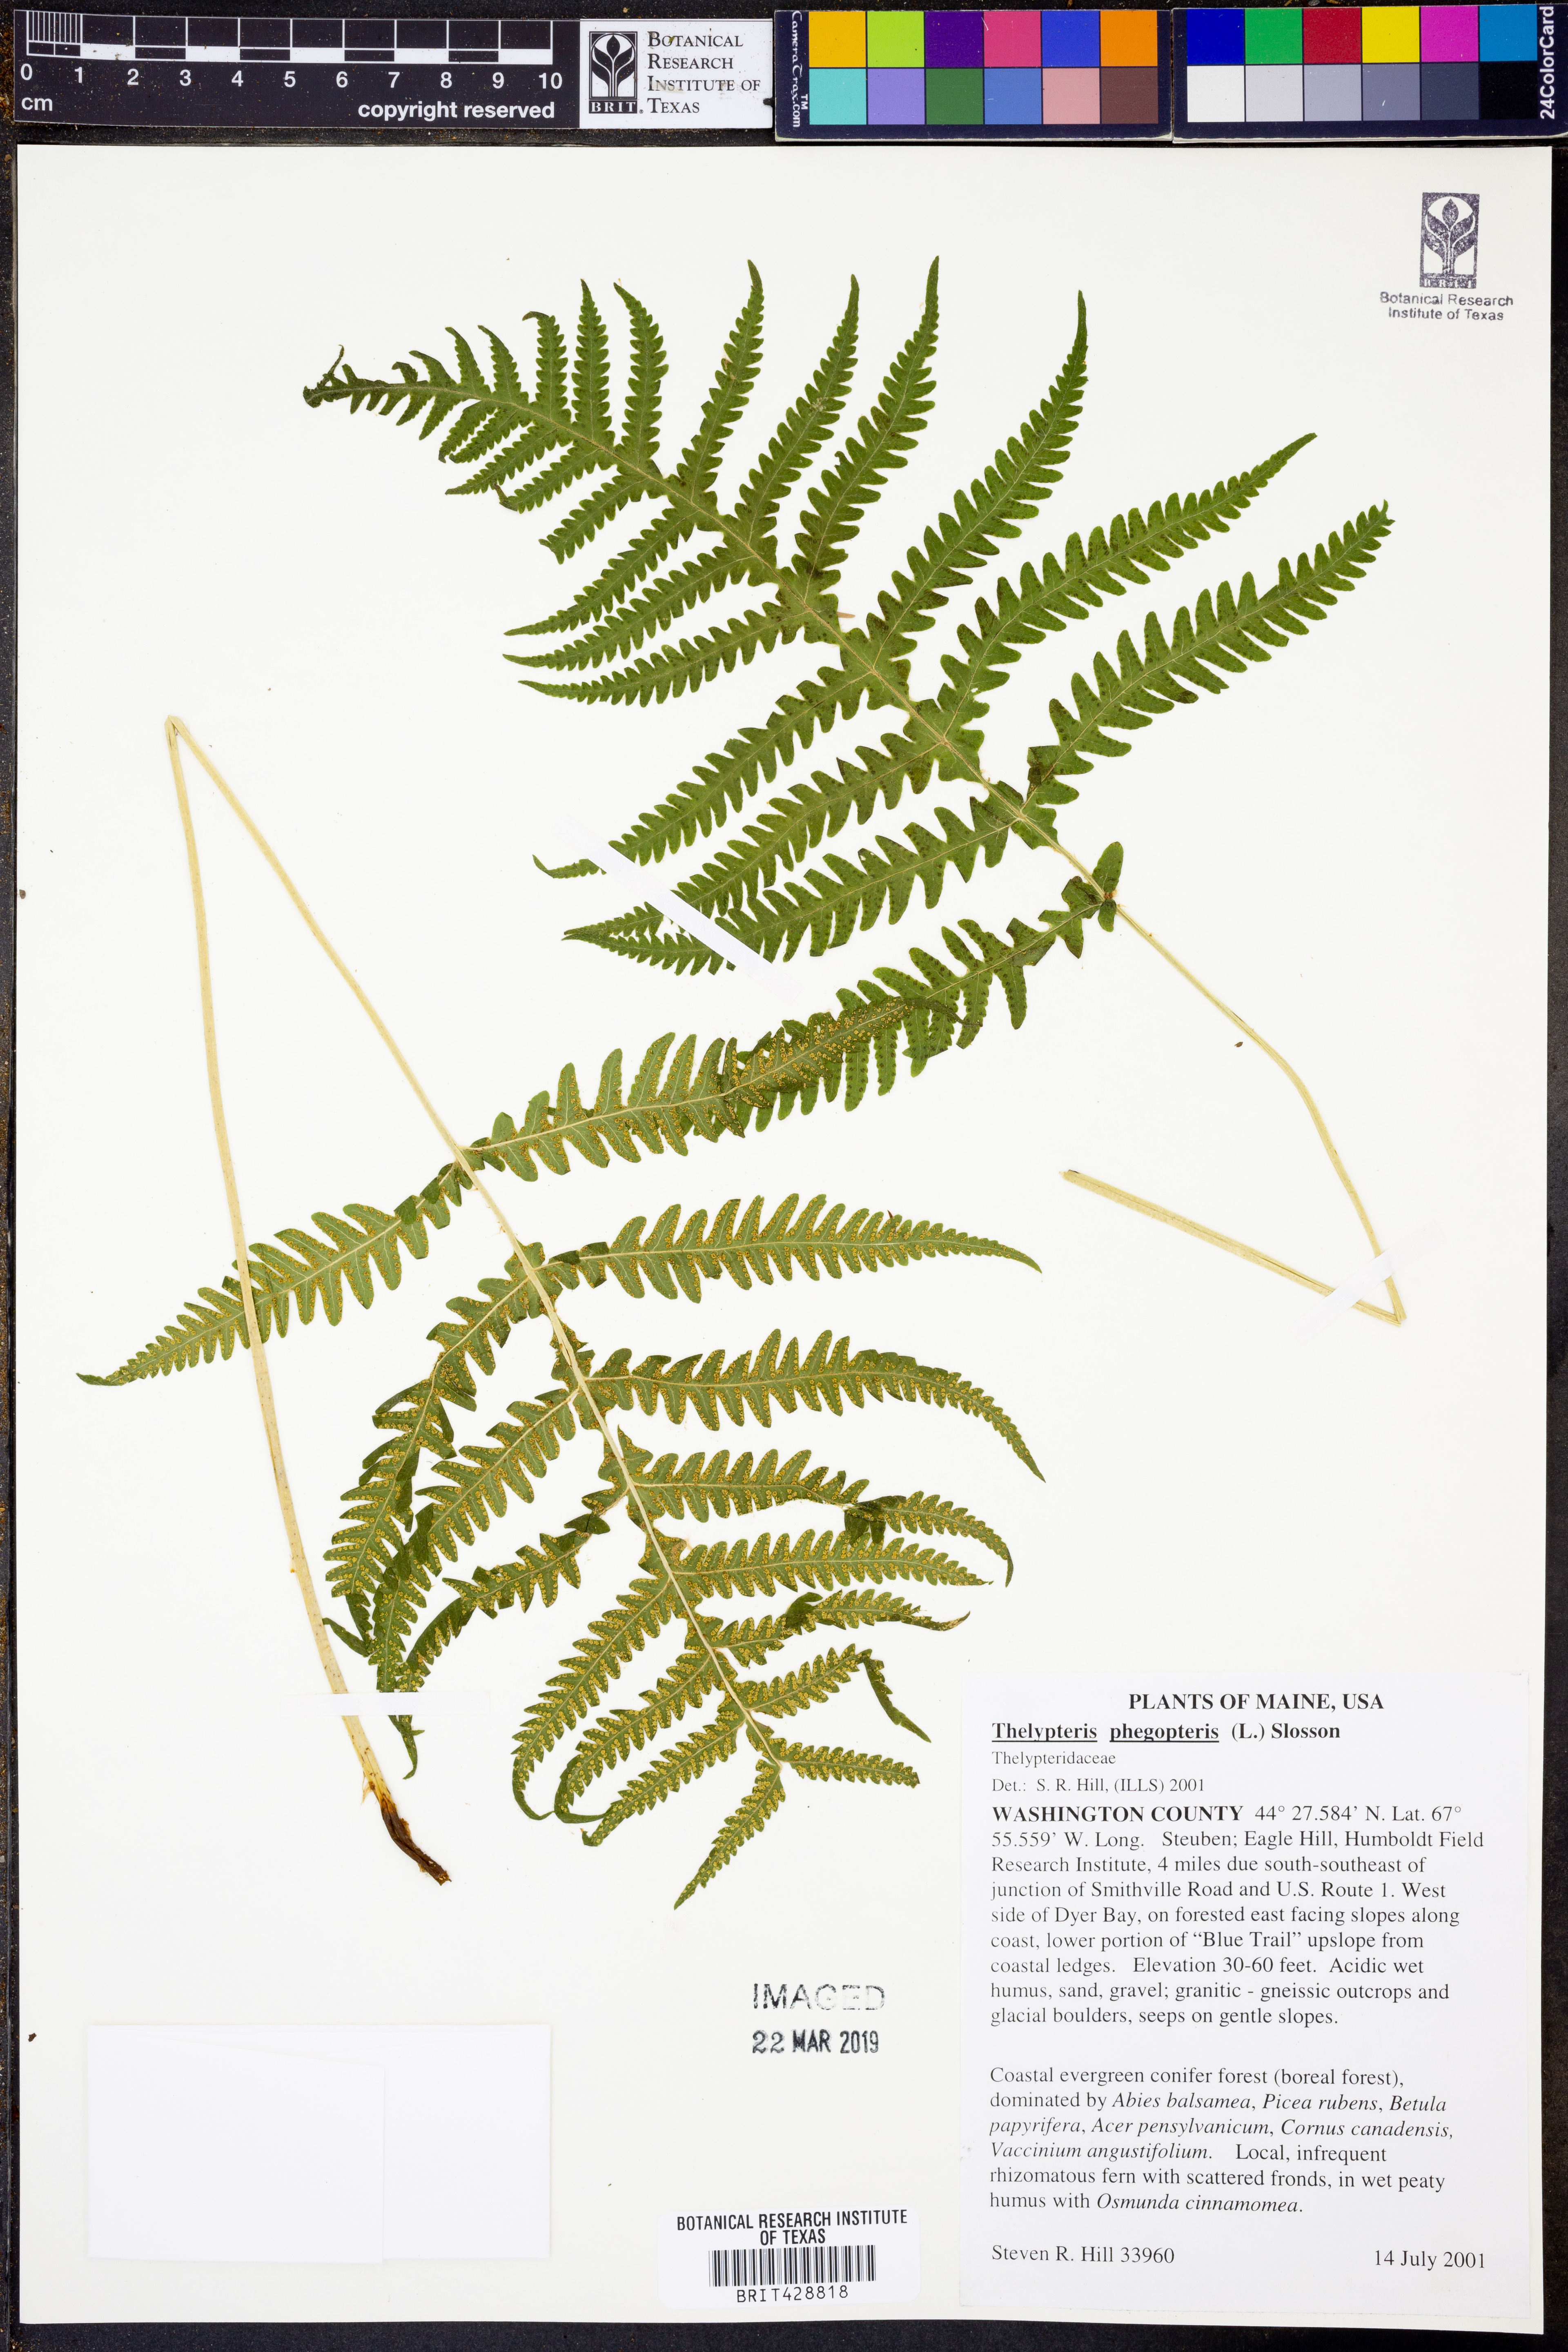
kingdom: Plantae
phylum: Tracheophyta
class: Polypodiopsida
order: Polypodiales
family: Thelypteridaceae
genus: Phegopteris
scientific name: Phegopteris connectilis
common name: Beech fern
